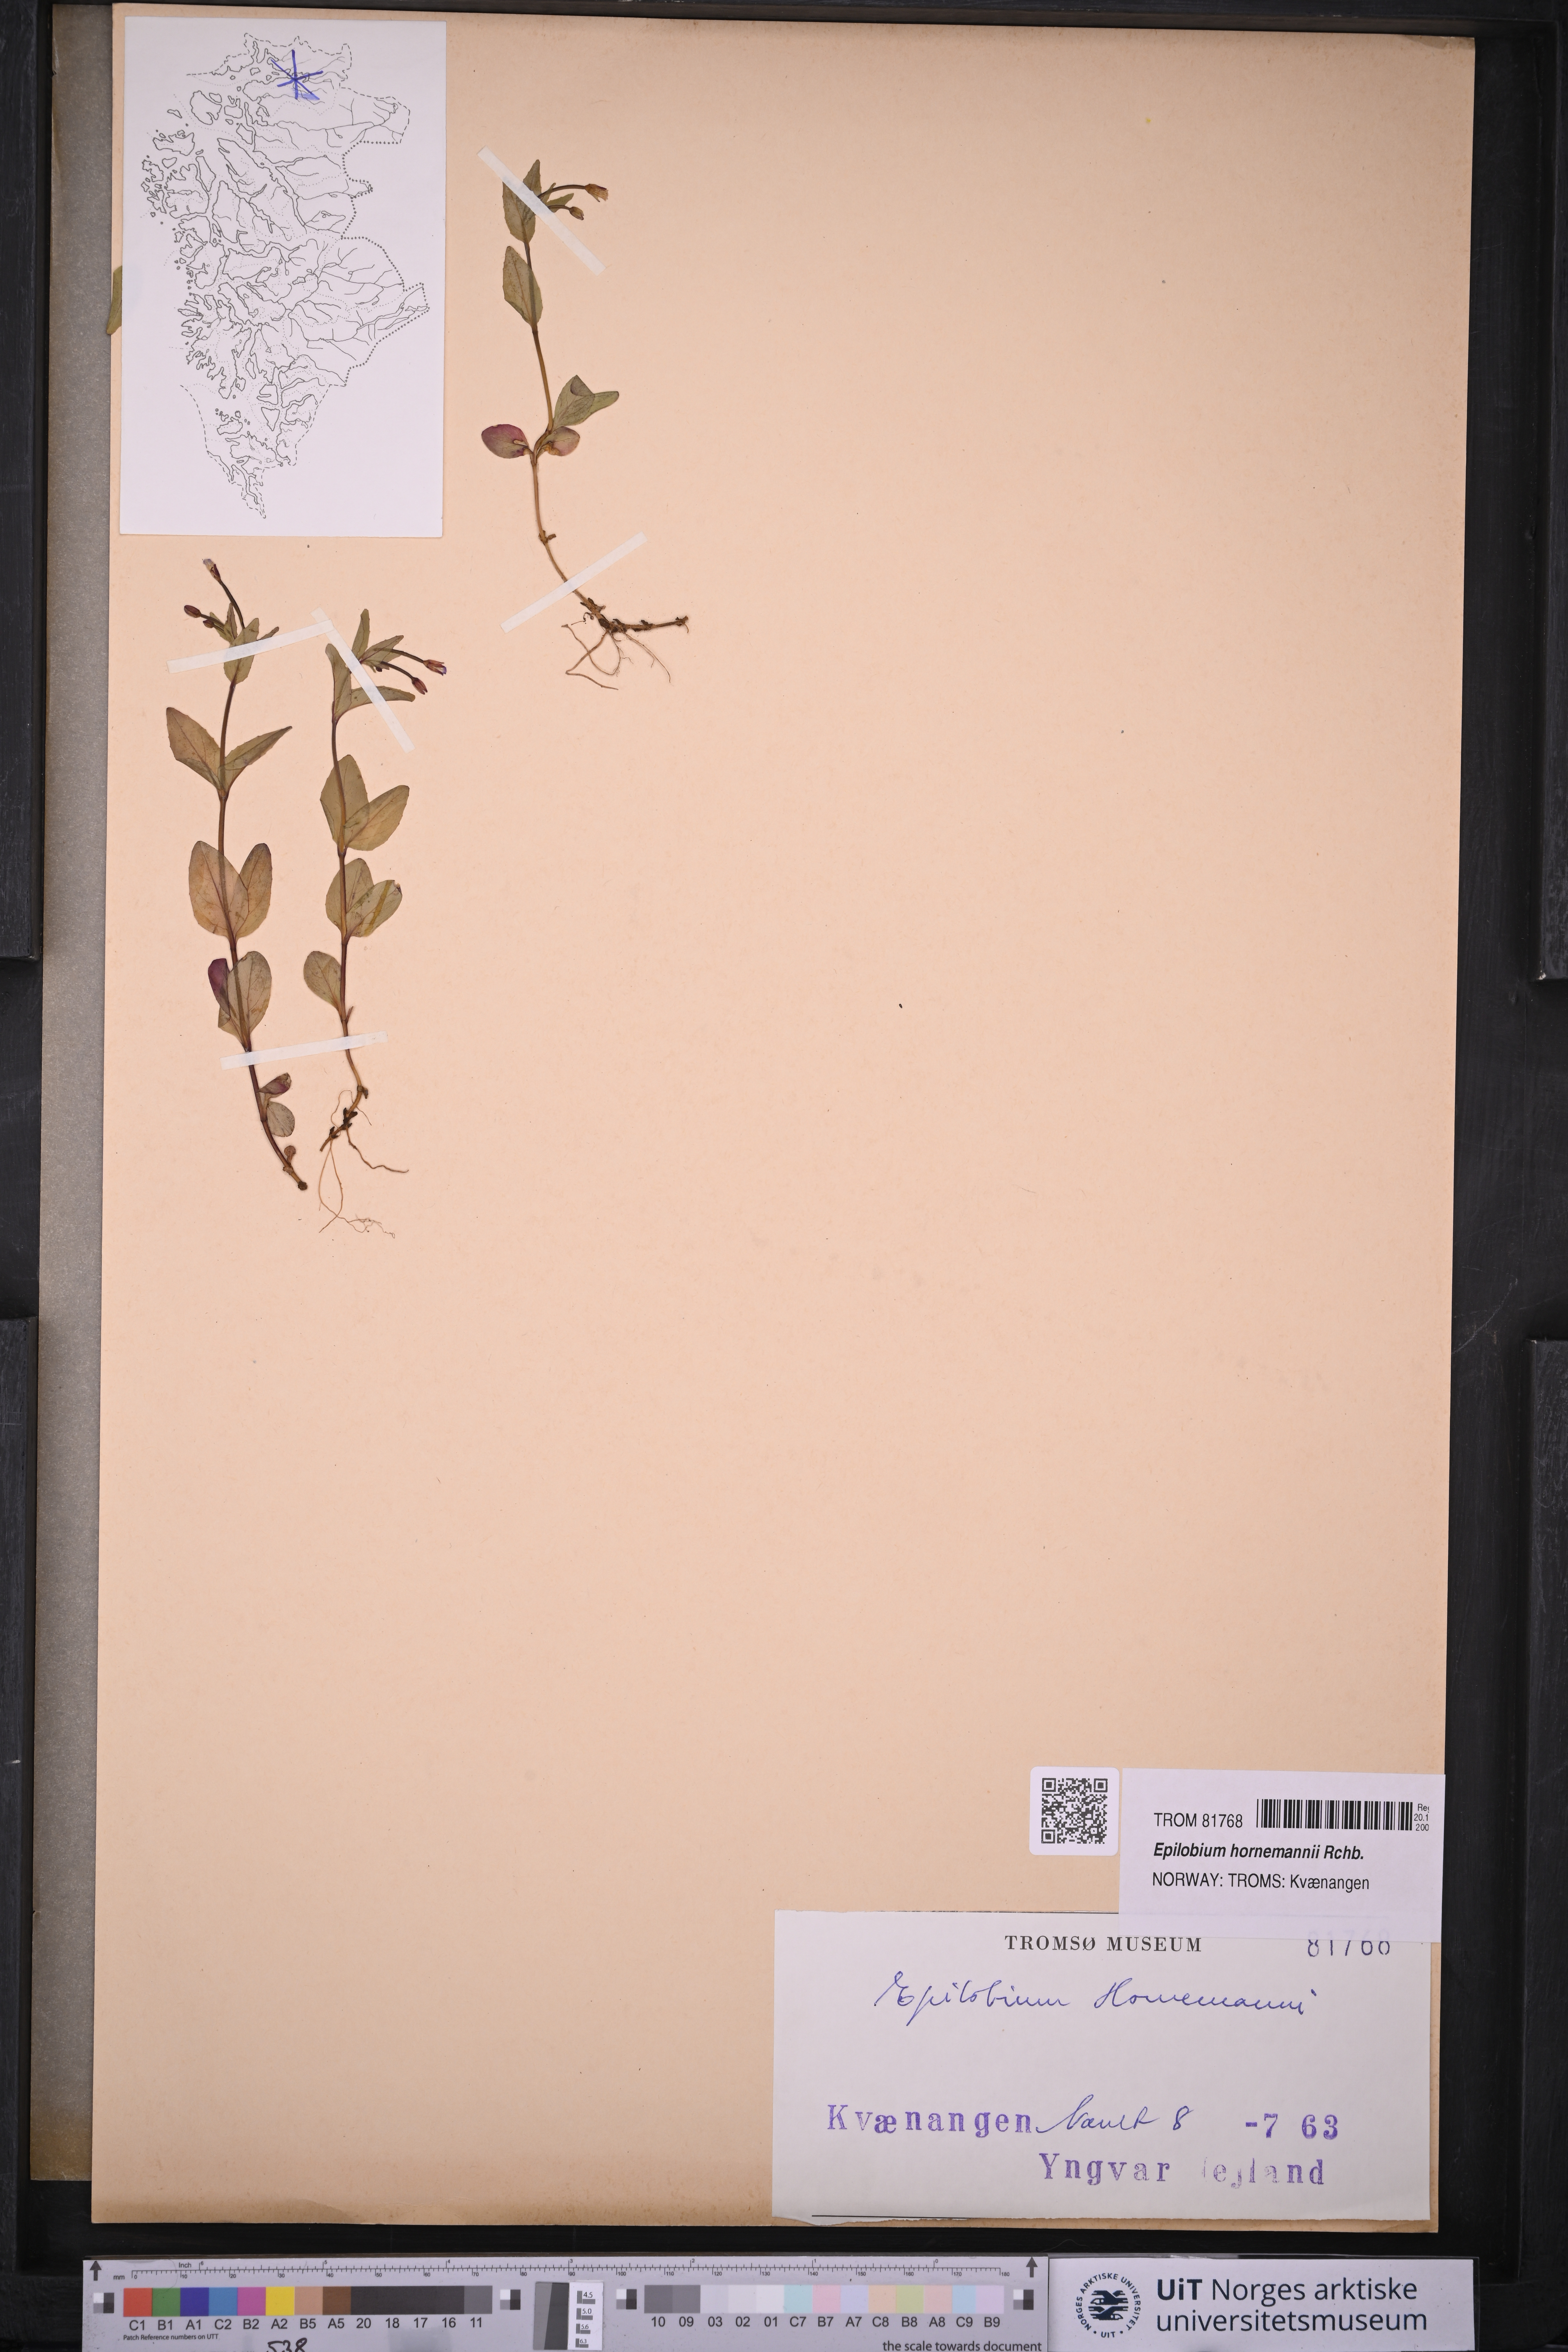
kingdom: Plantae
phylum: Tracheophyta
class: Magnoliopsida
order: Myrtales
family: Onagraceae
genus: Epilobium
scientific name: Epilobium hornemannii
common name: Hornemann's willowherb
